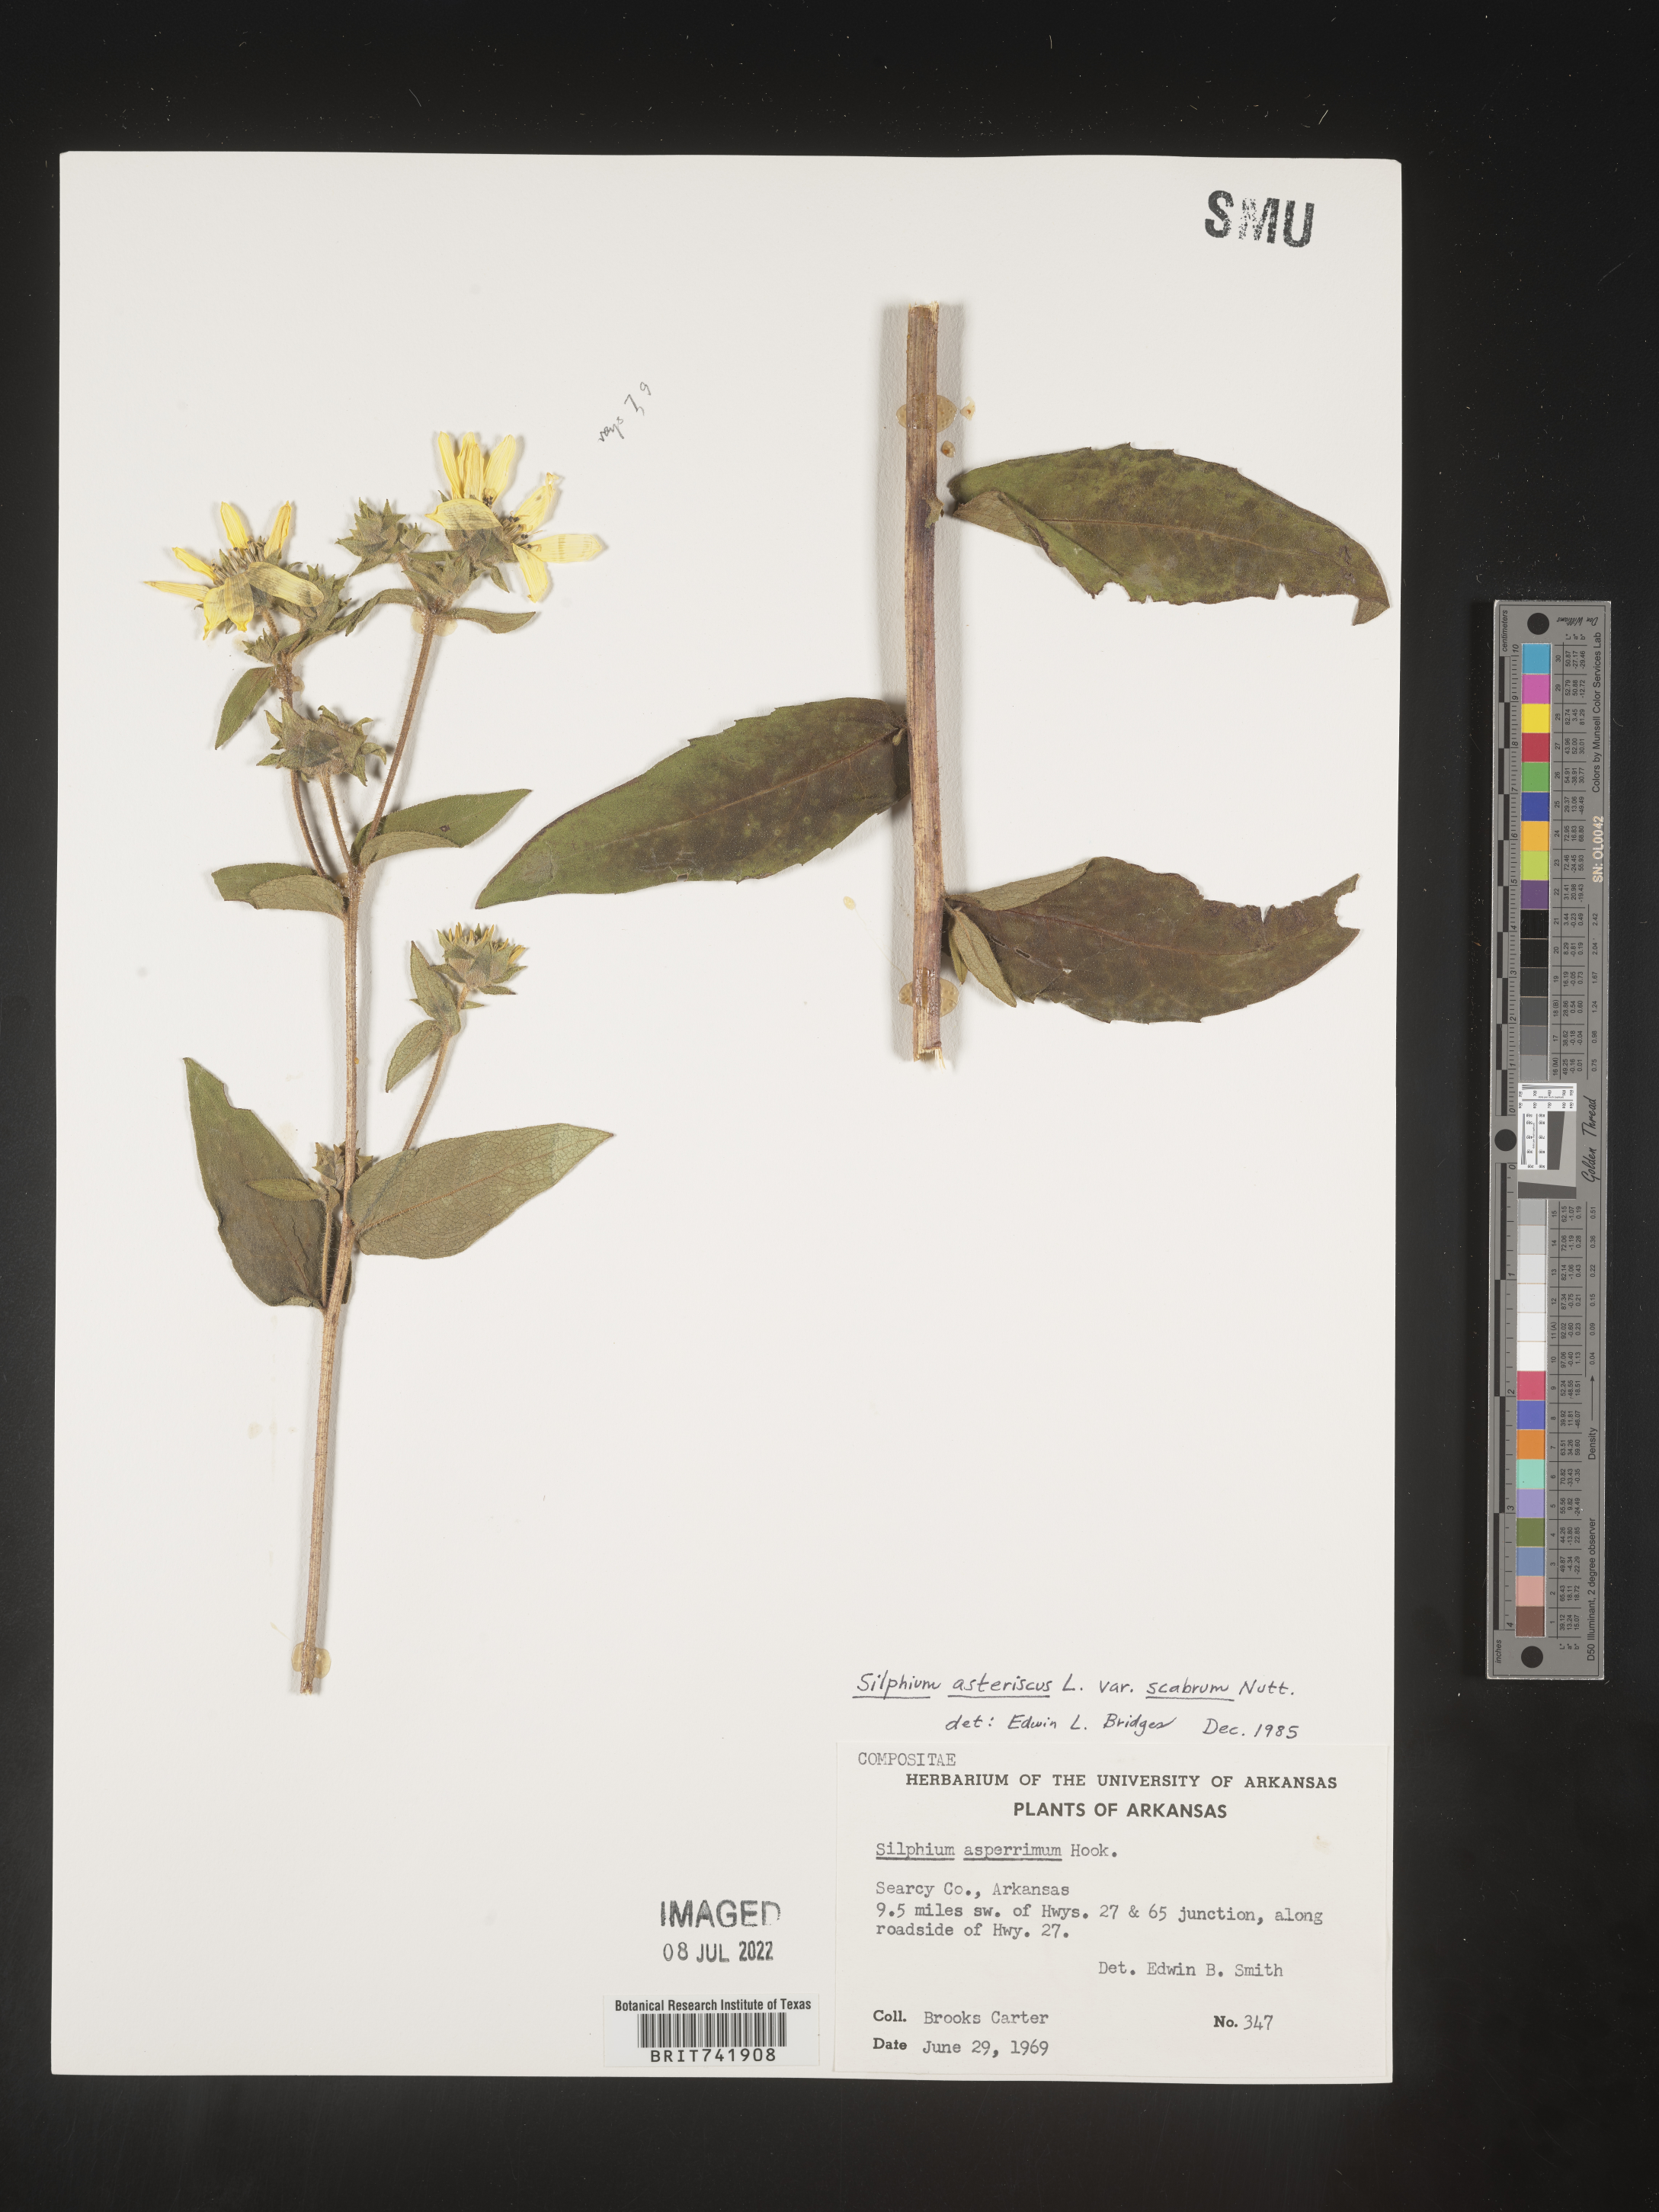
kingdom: Plantae
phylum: Tracheophyta
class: Magnoliopsida
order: Asterales
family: Asteraceae
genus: Silphium
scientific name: Silphium asperrimum
